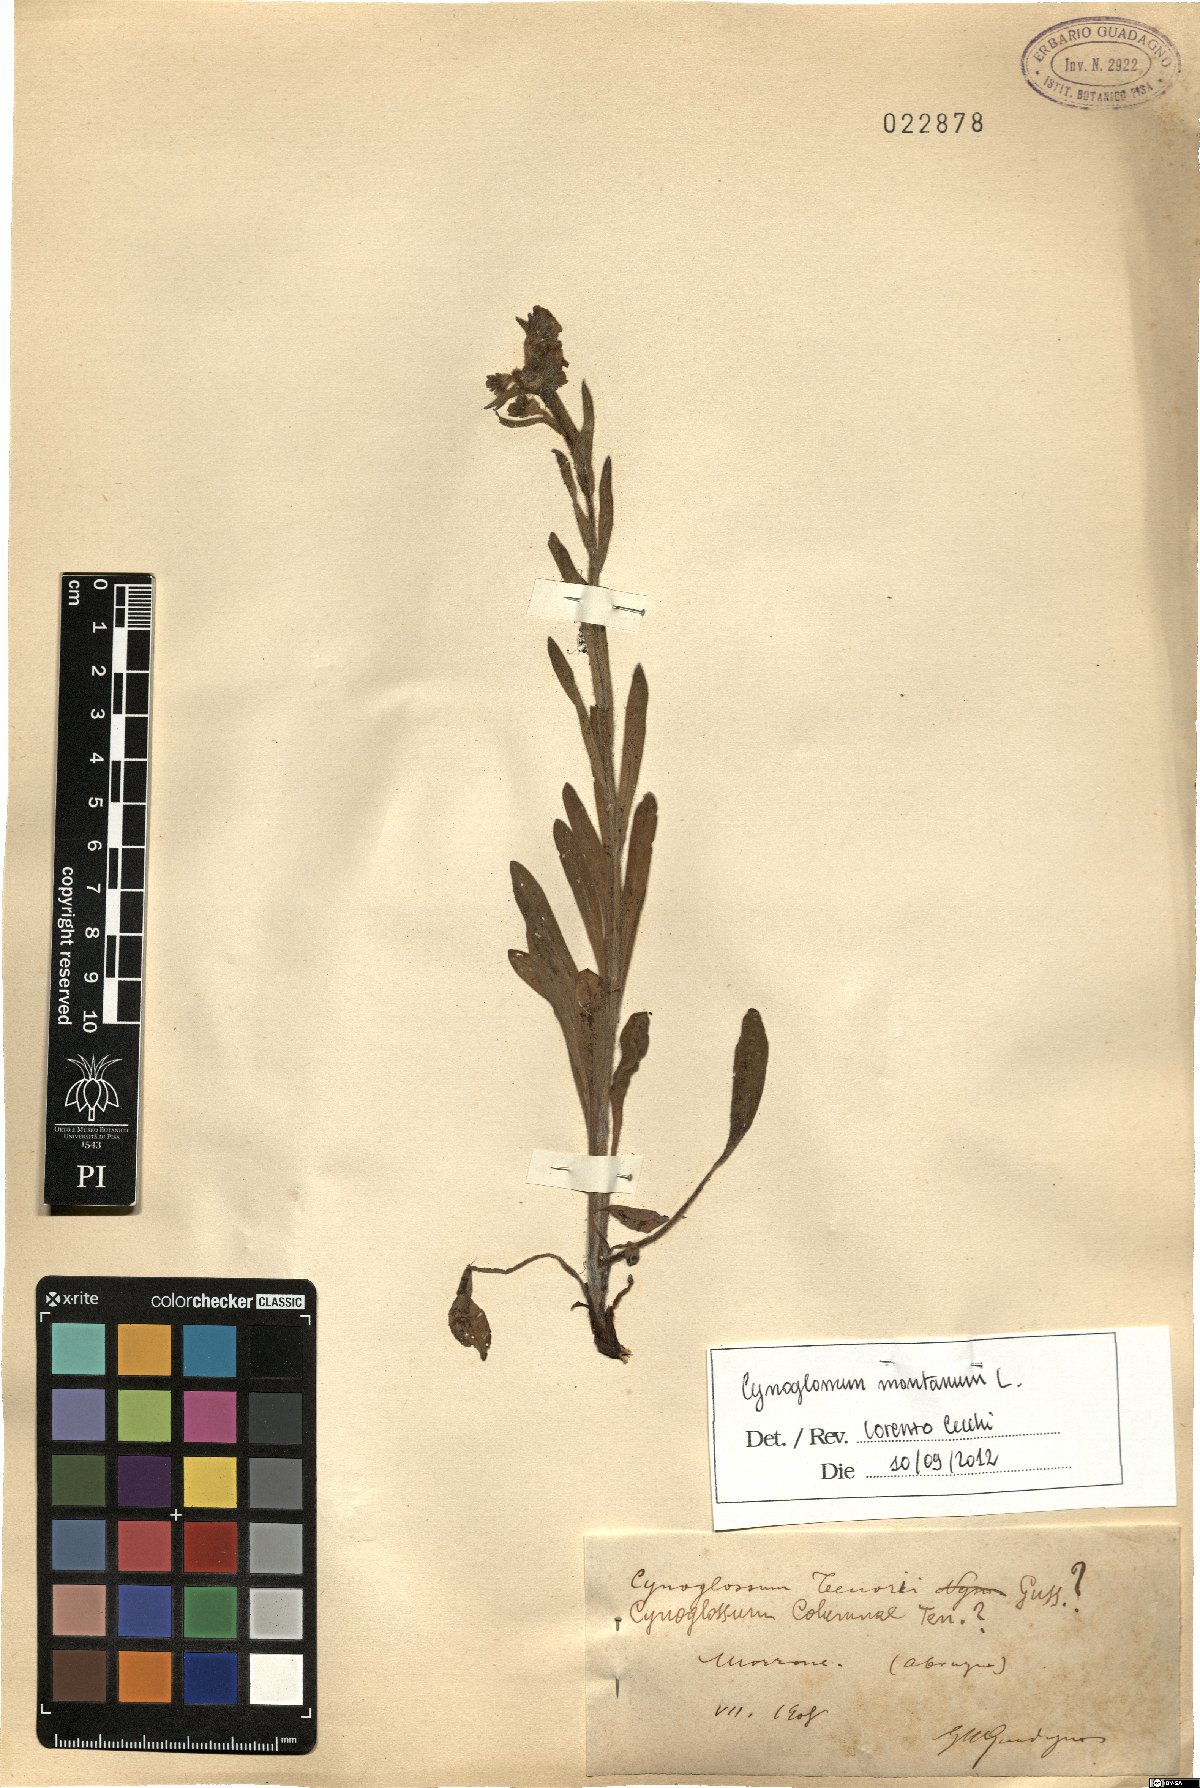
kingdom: Plantae
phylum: Tracheophyta
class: Magnoliopsida
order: Boraginales
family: Boraginaceae
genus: Cynoglossum
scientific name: Cynoglossum montanum
